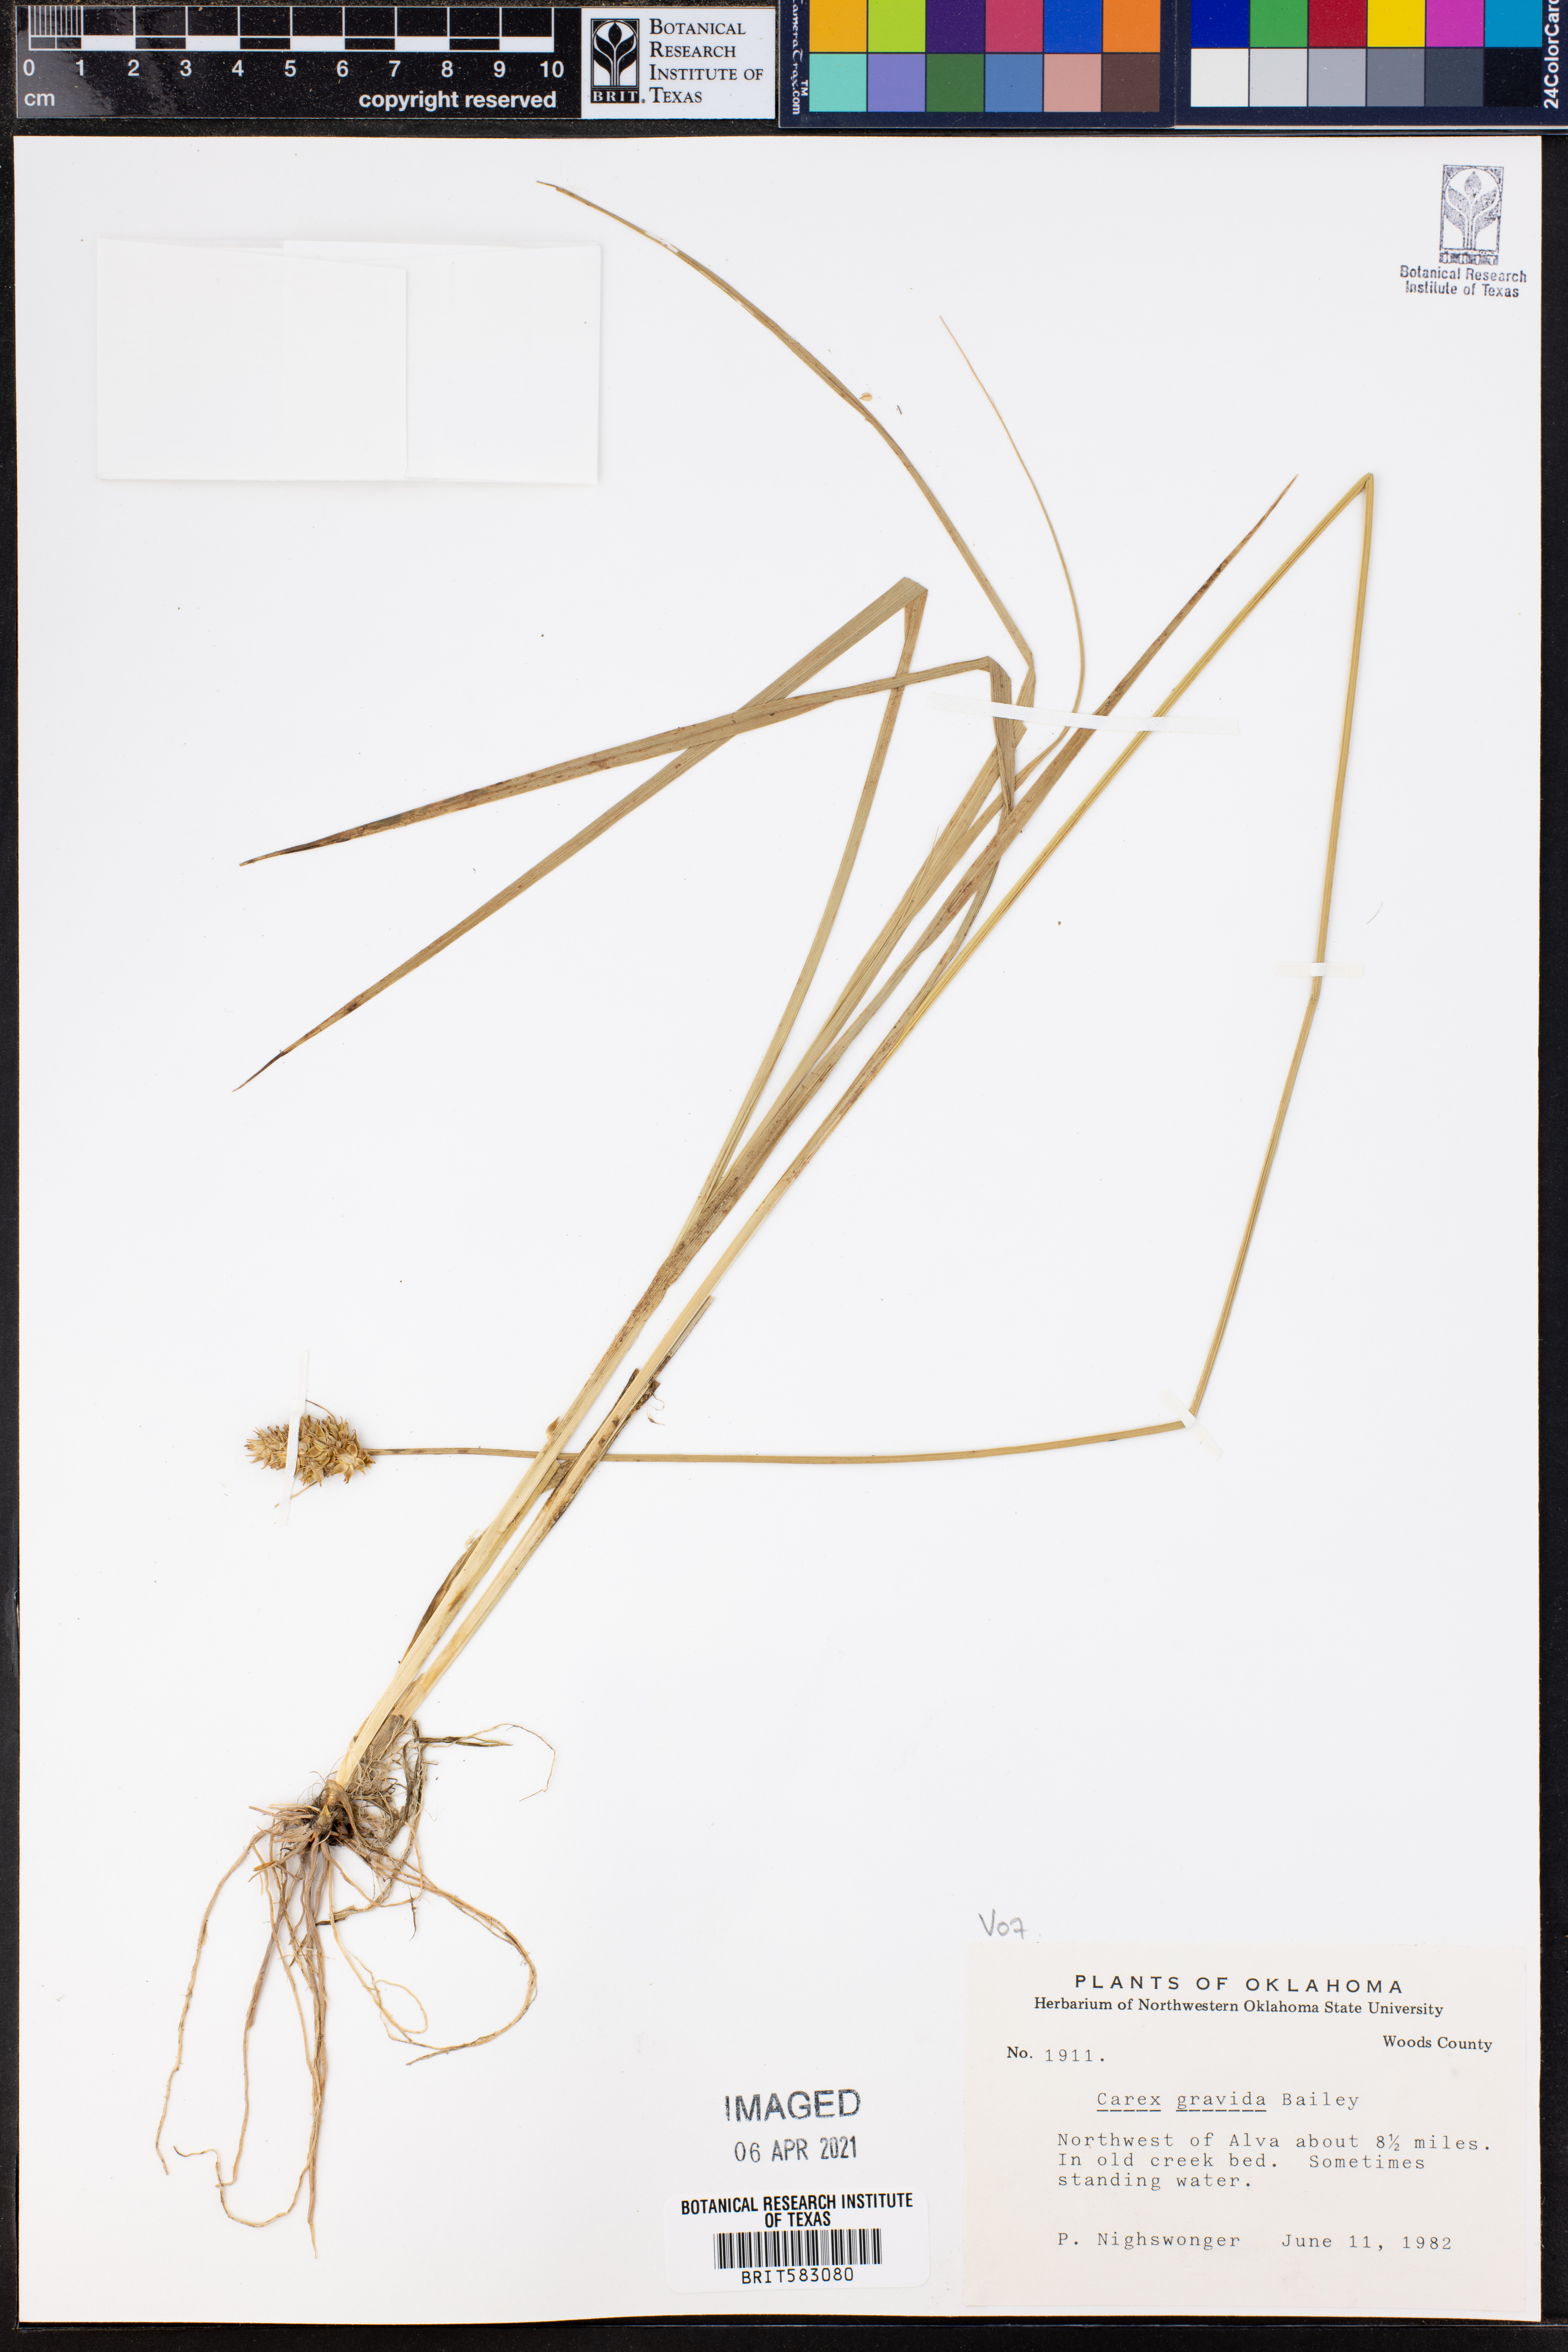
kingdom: Plantae
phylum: Tracheophyta
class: Liliopsida
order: Poales
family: Cyperaceae
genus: Carex
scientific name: Carex gravida
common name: Heavy sedge
